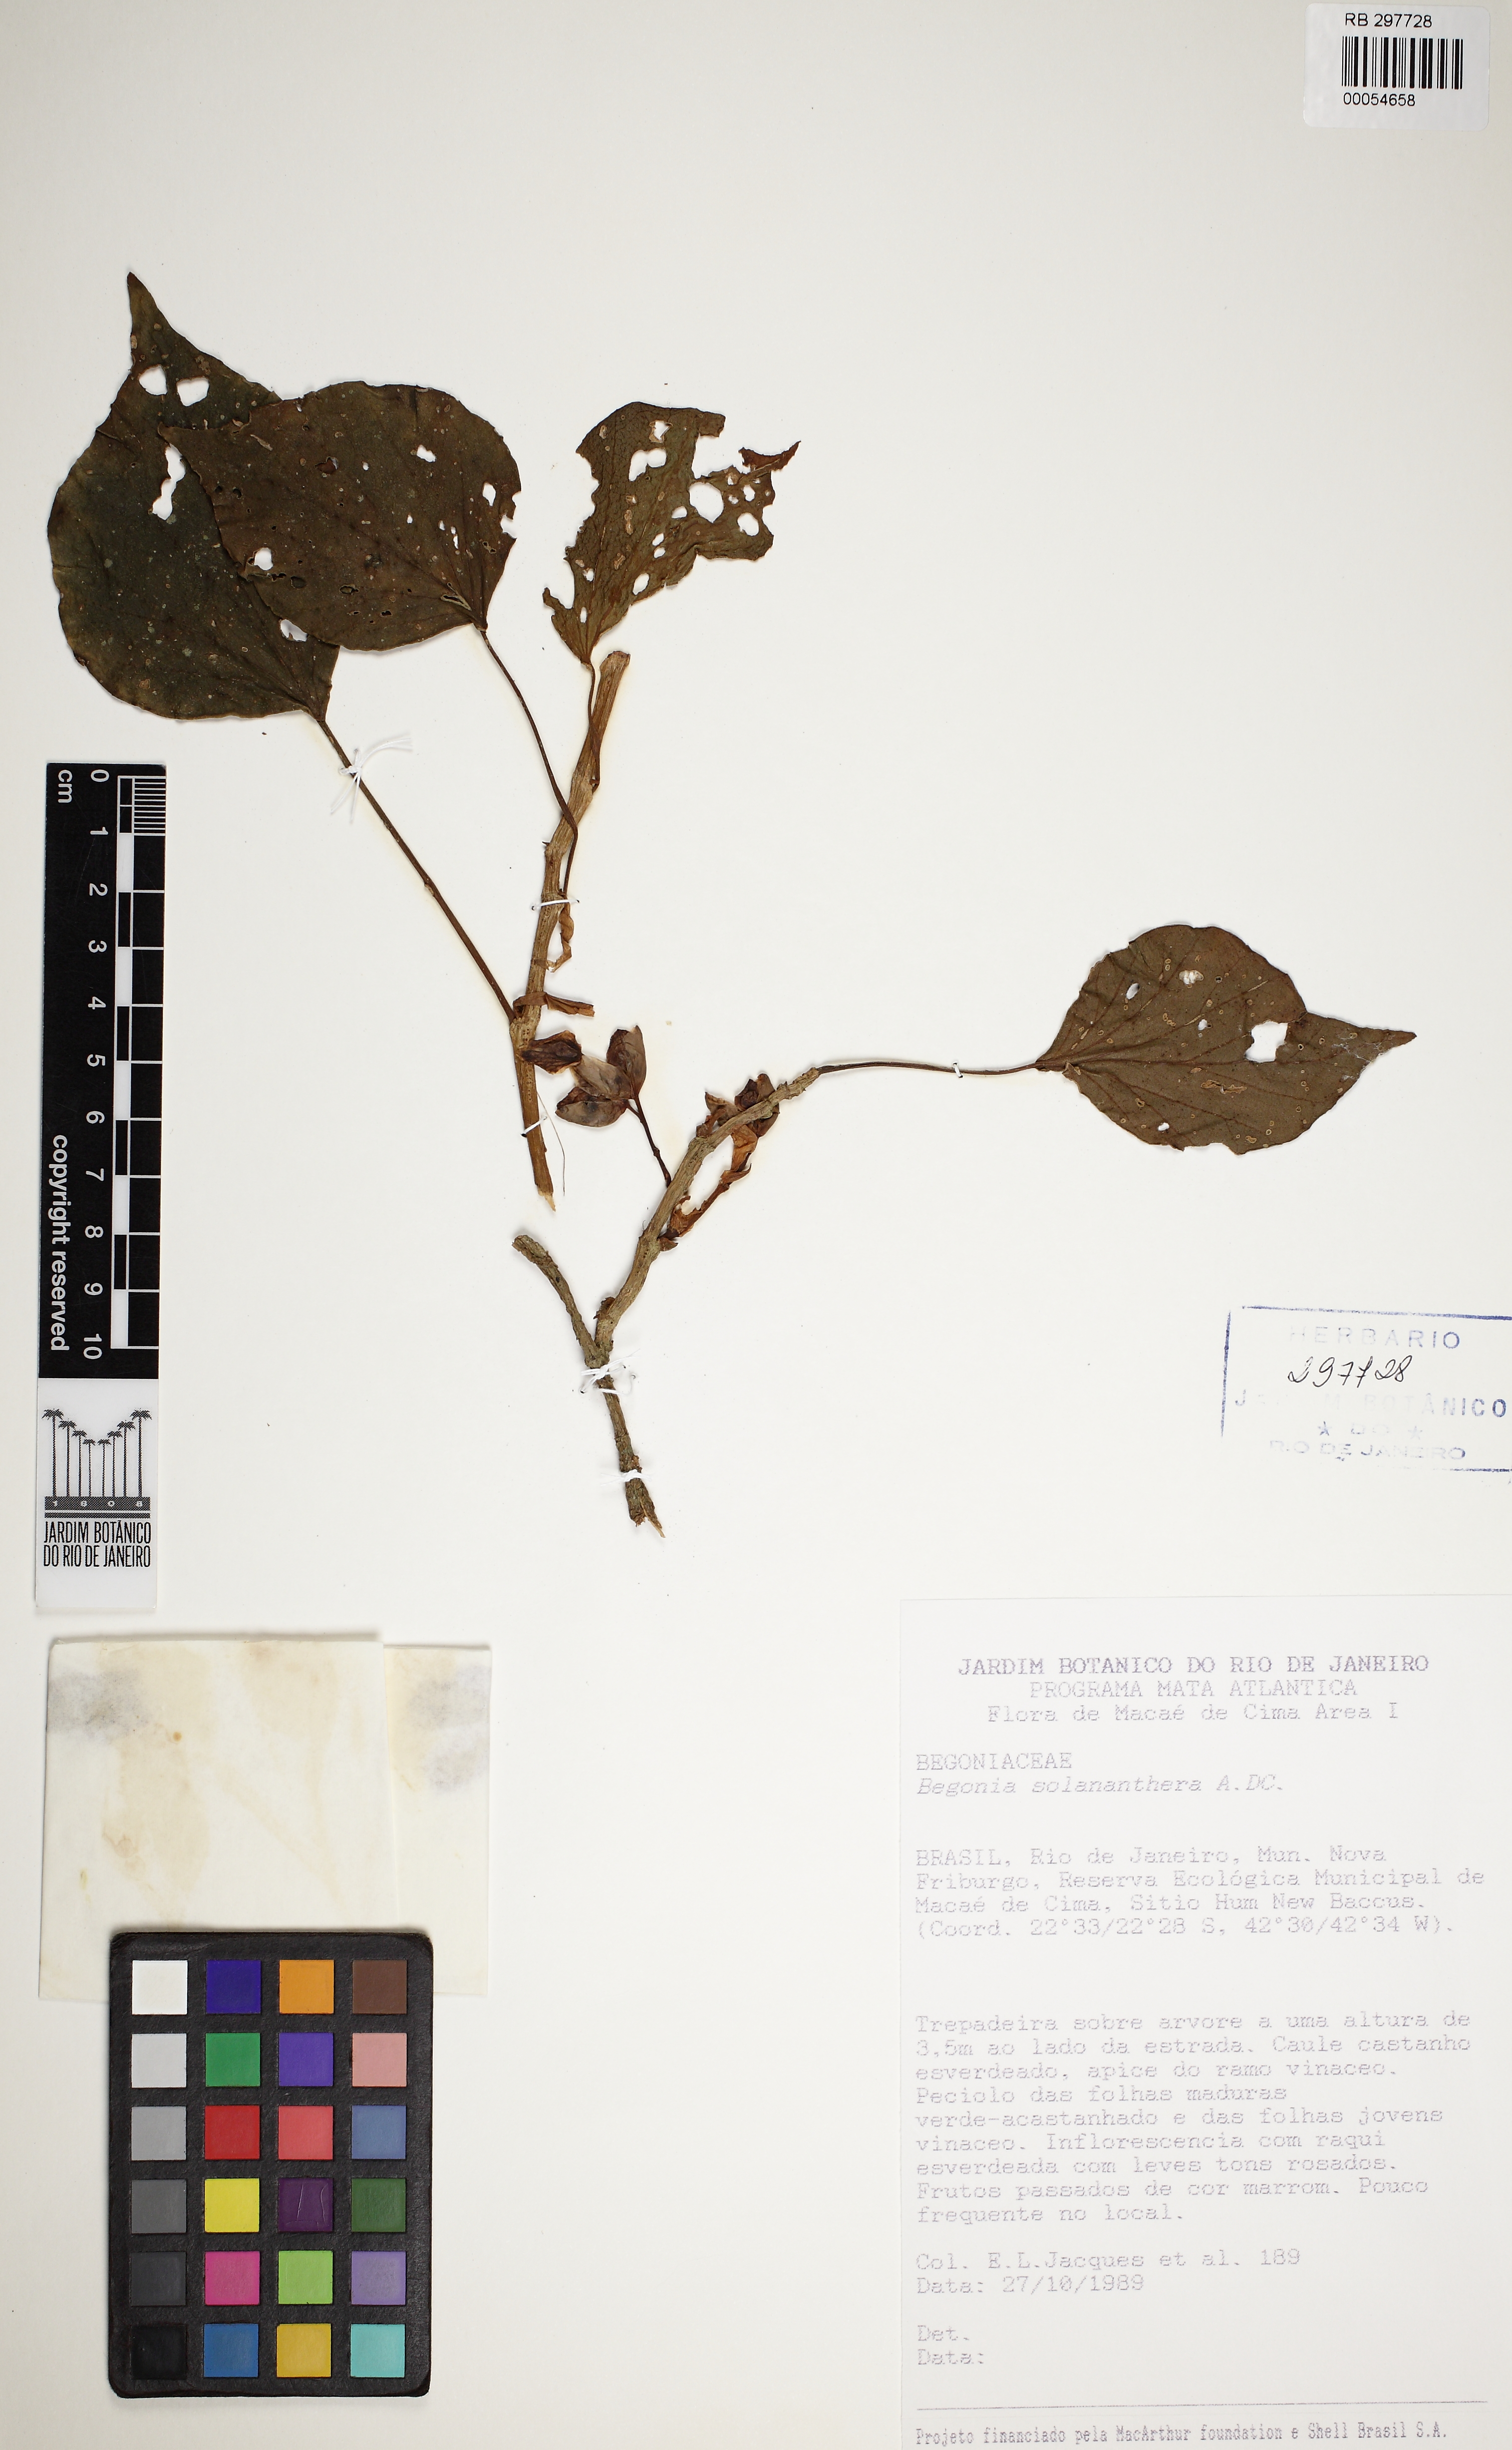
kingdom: Plantae
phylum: Tracheophyta
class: Magnoliopsida
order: Cucurbitales
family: Begoniaceae
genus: Begonia
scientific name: Begonia solananthera
